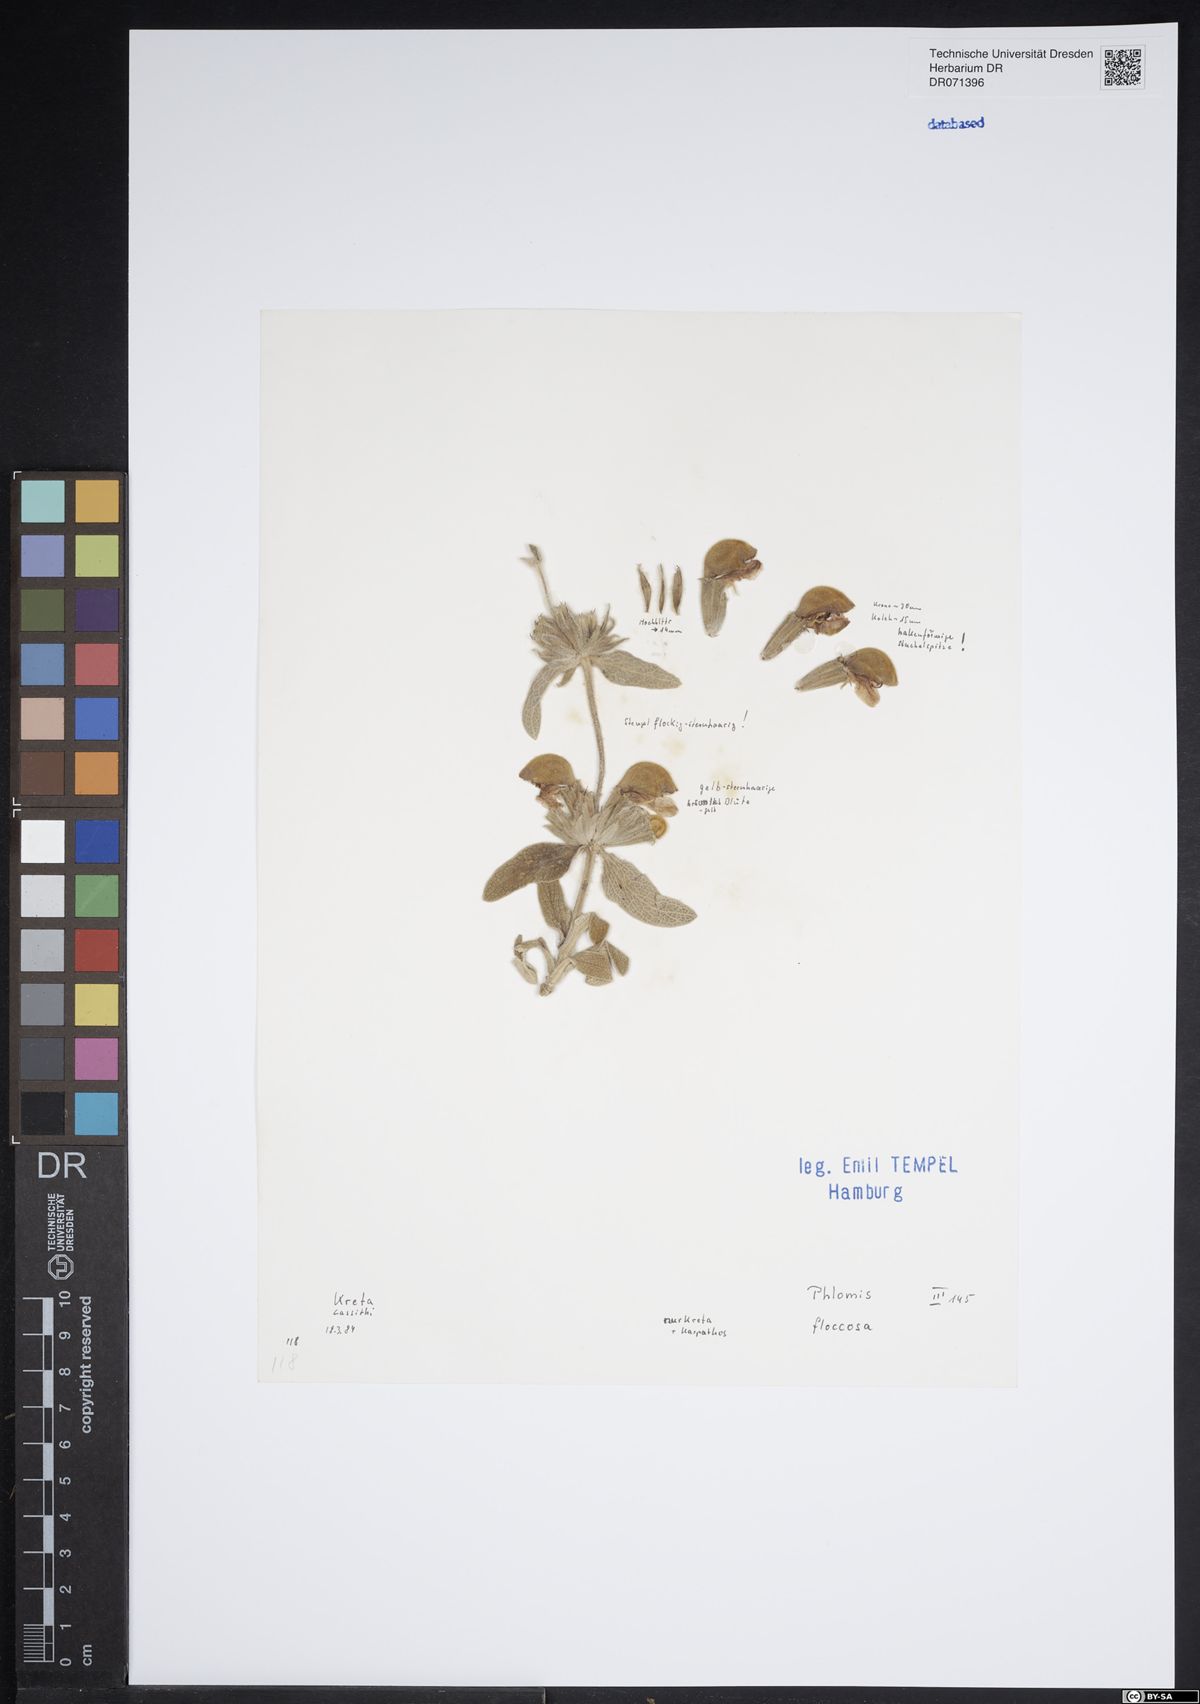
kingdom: Plantae
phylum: Tracheophyta
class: Magnoliopsida
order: Lamiales
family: Lamiaceae
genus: Phlomis
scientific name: Phlomis floccosa
